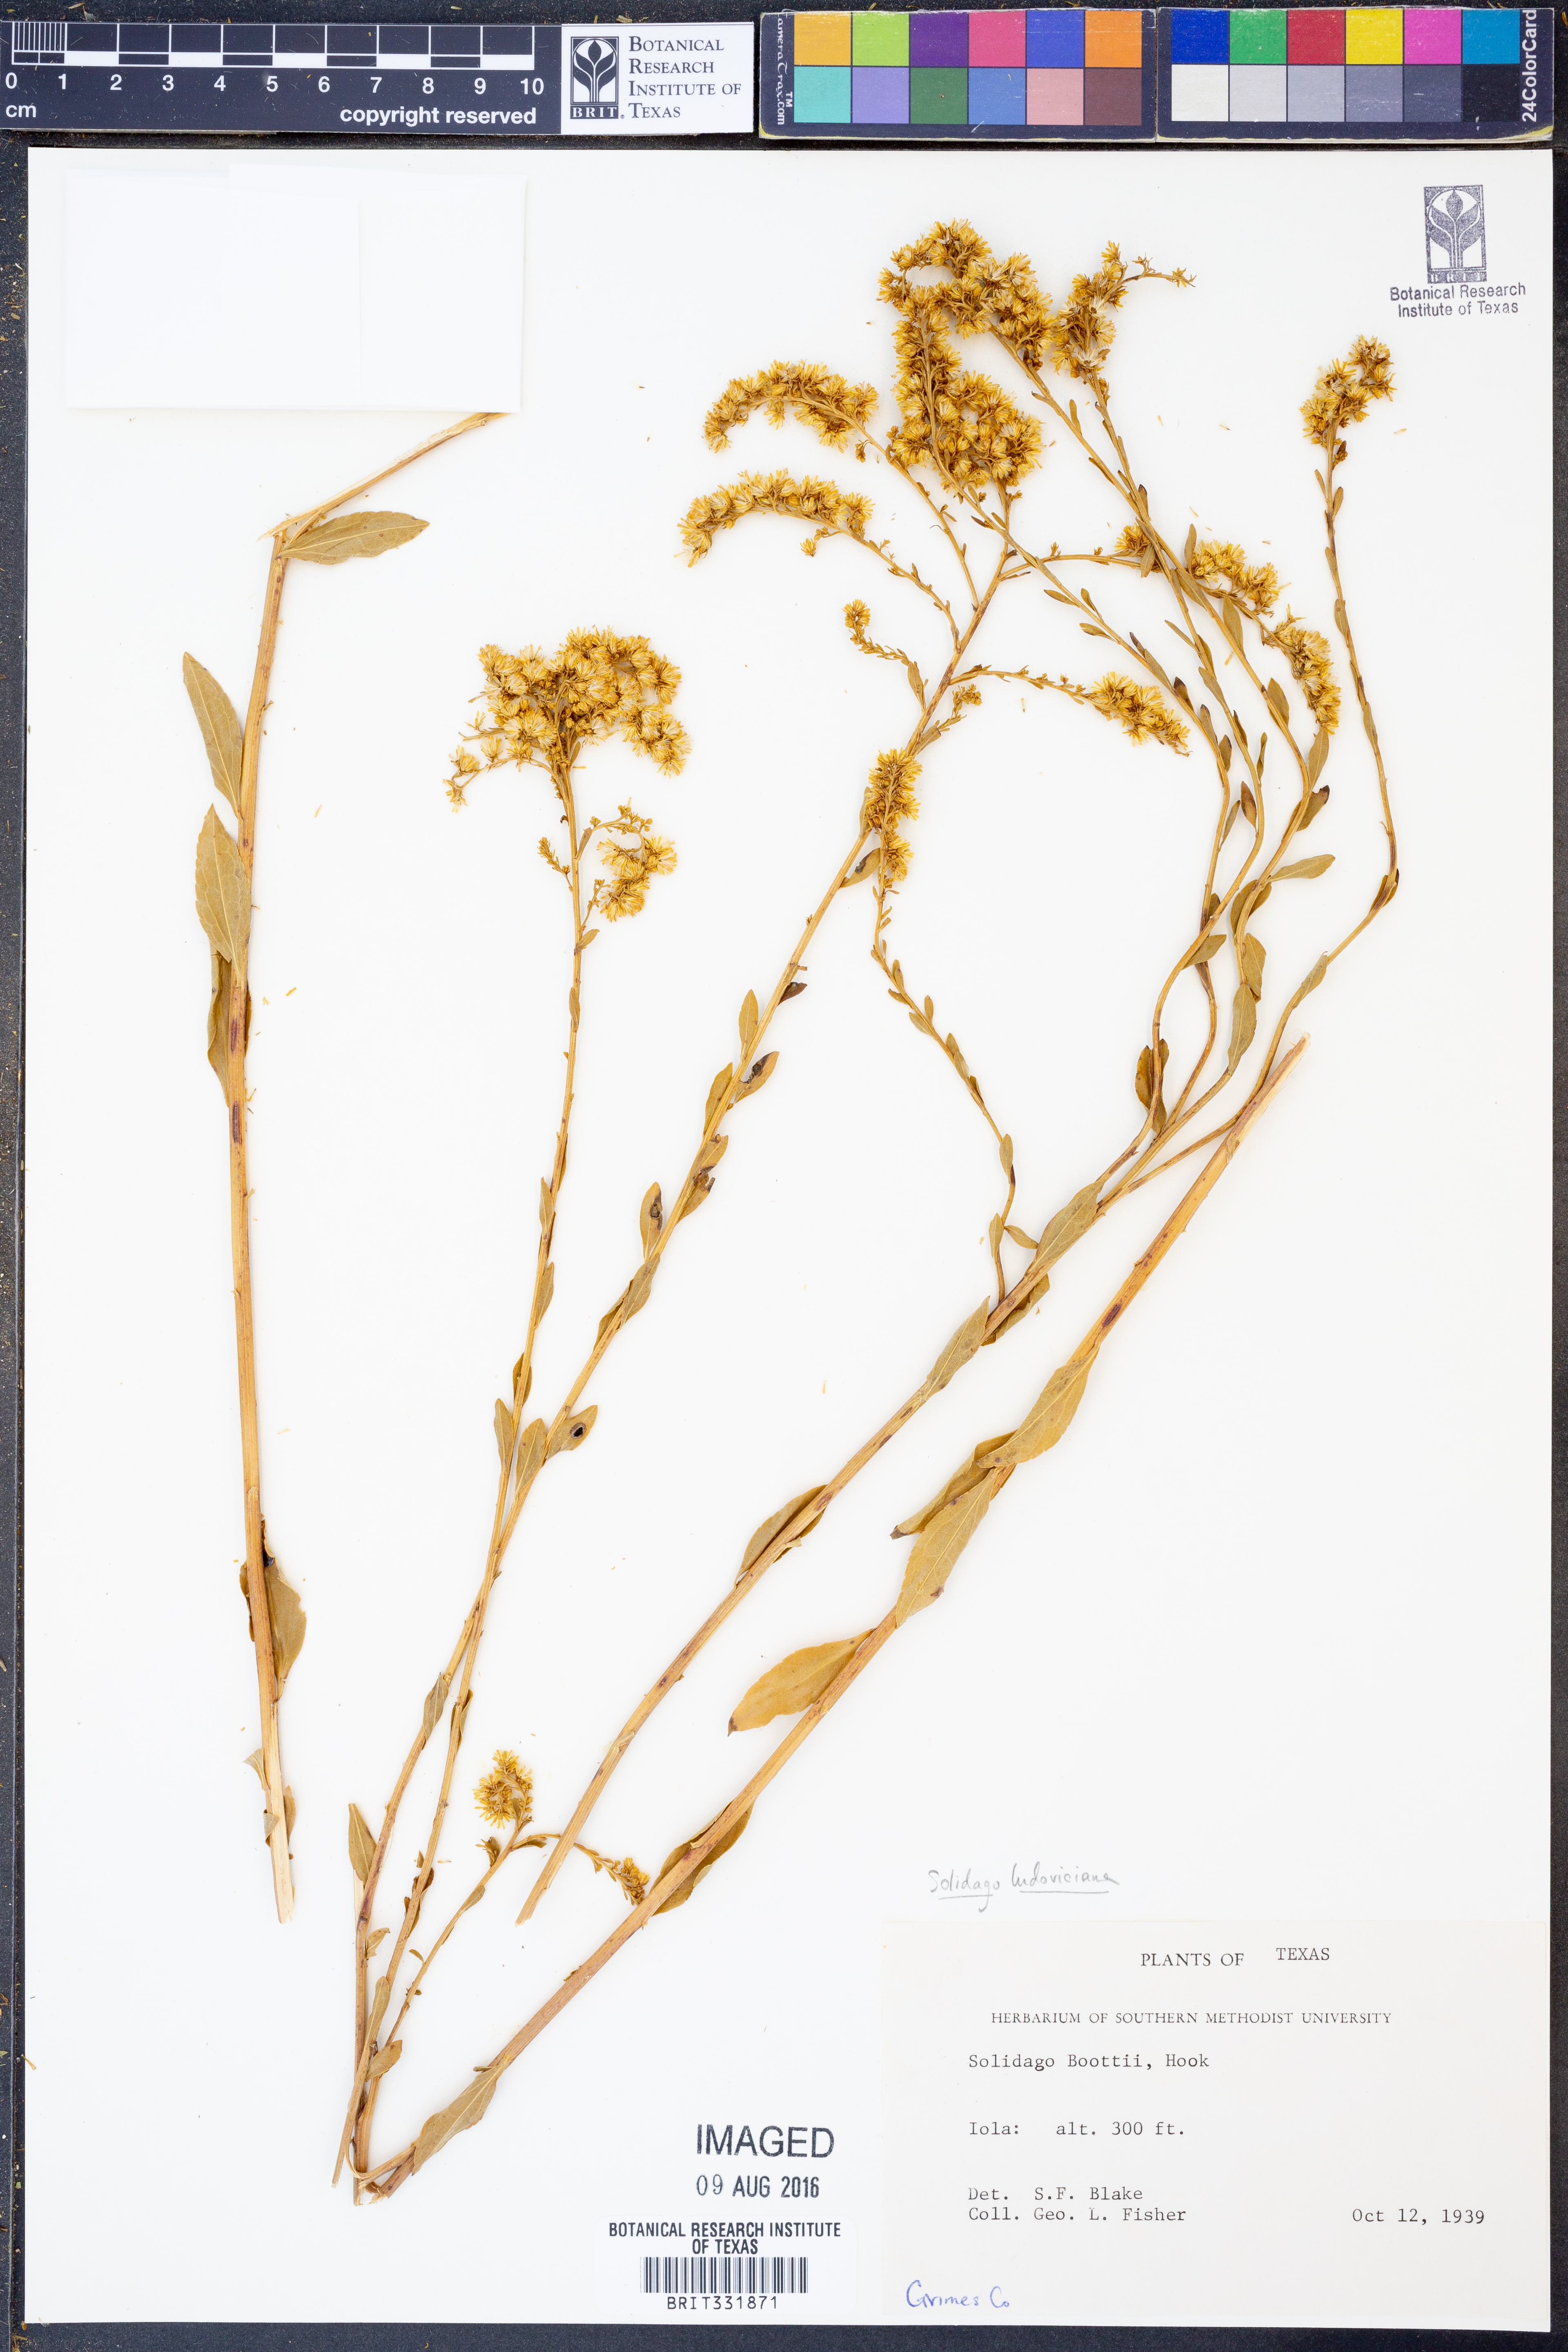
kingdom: Plantae
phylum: Tracheophyta
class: Magnoliopsida
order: Asterales
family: Asteraceae
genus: Solidago
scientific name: Solidago ludoviciana
